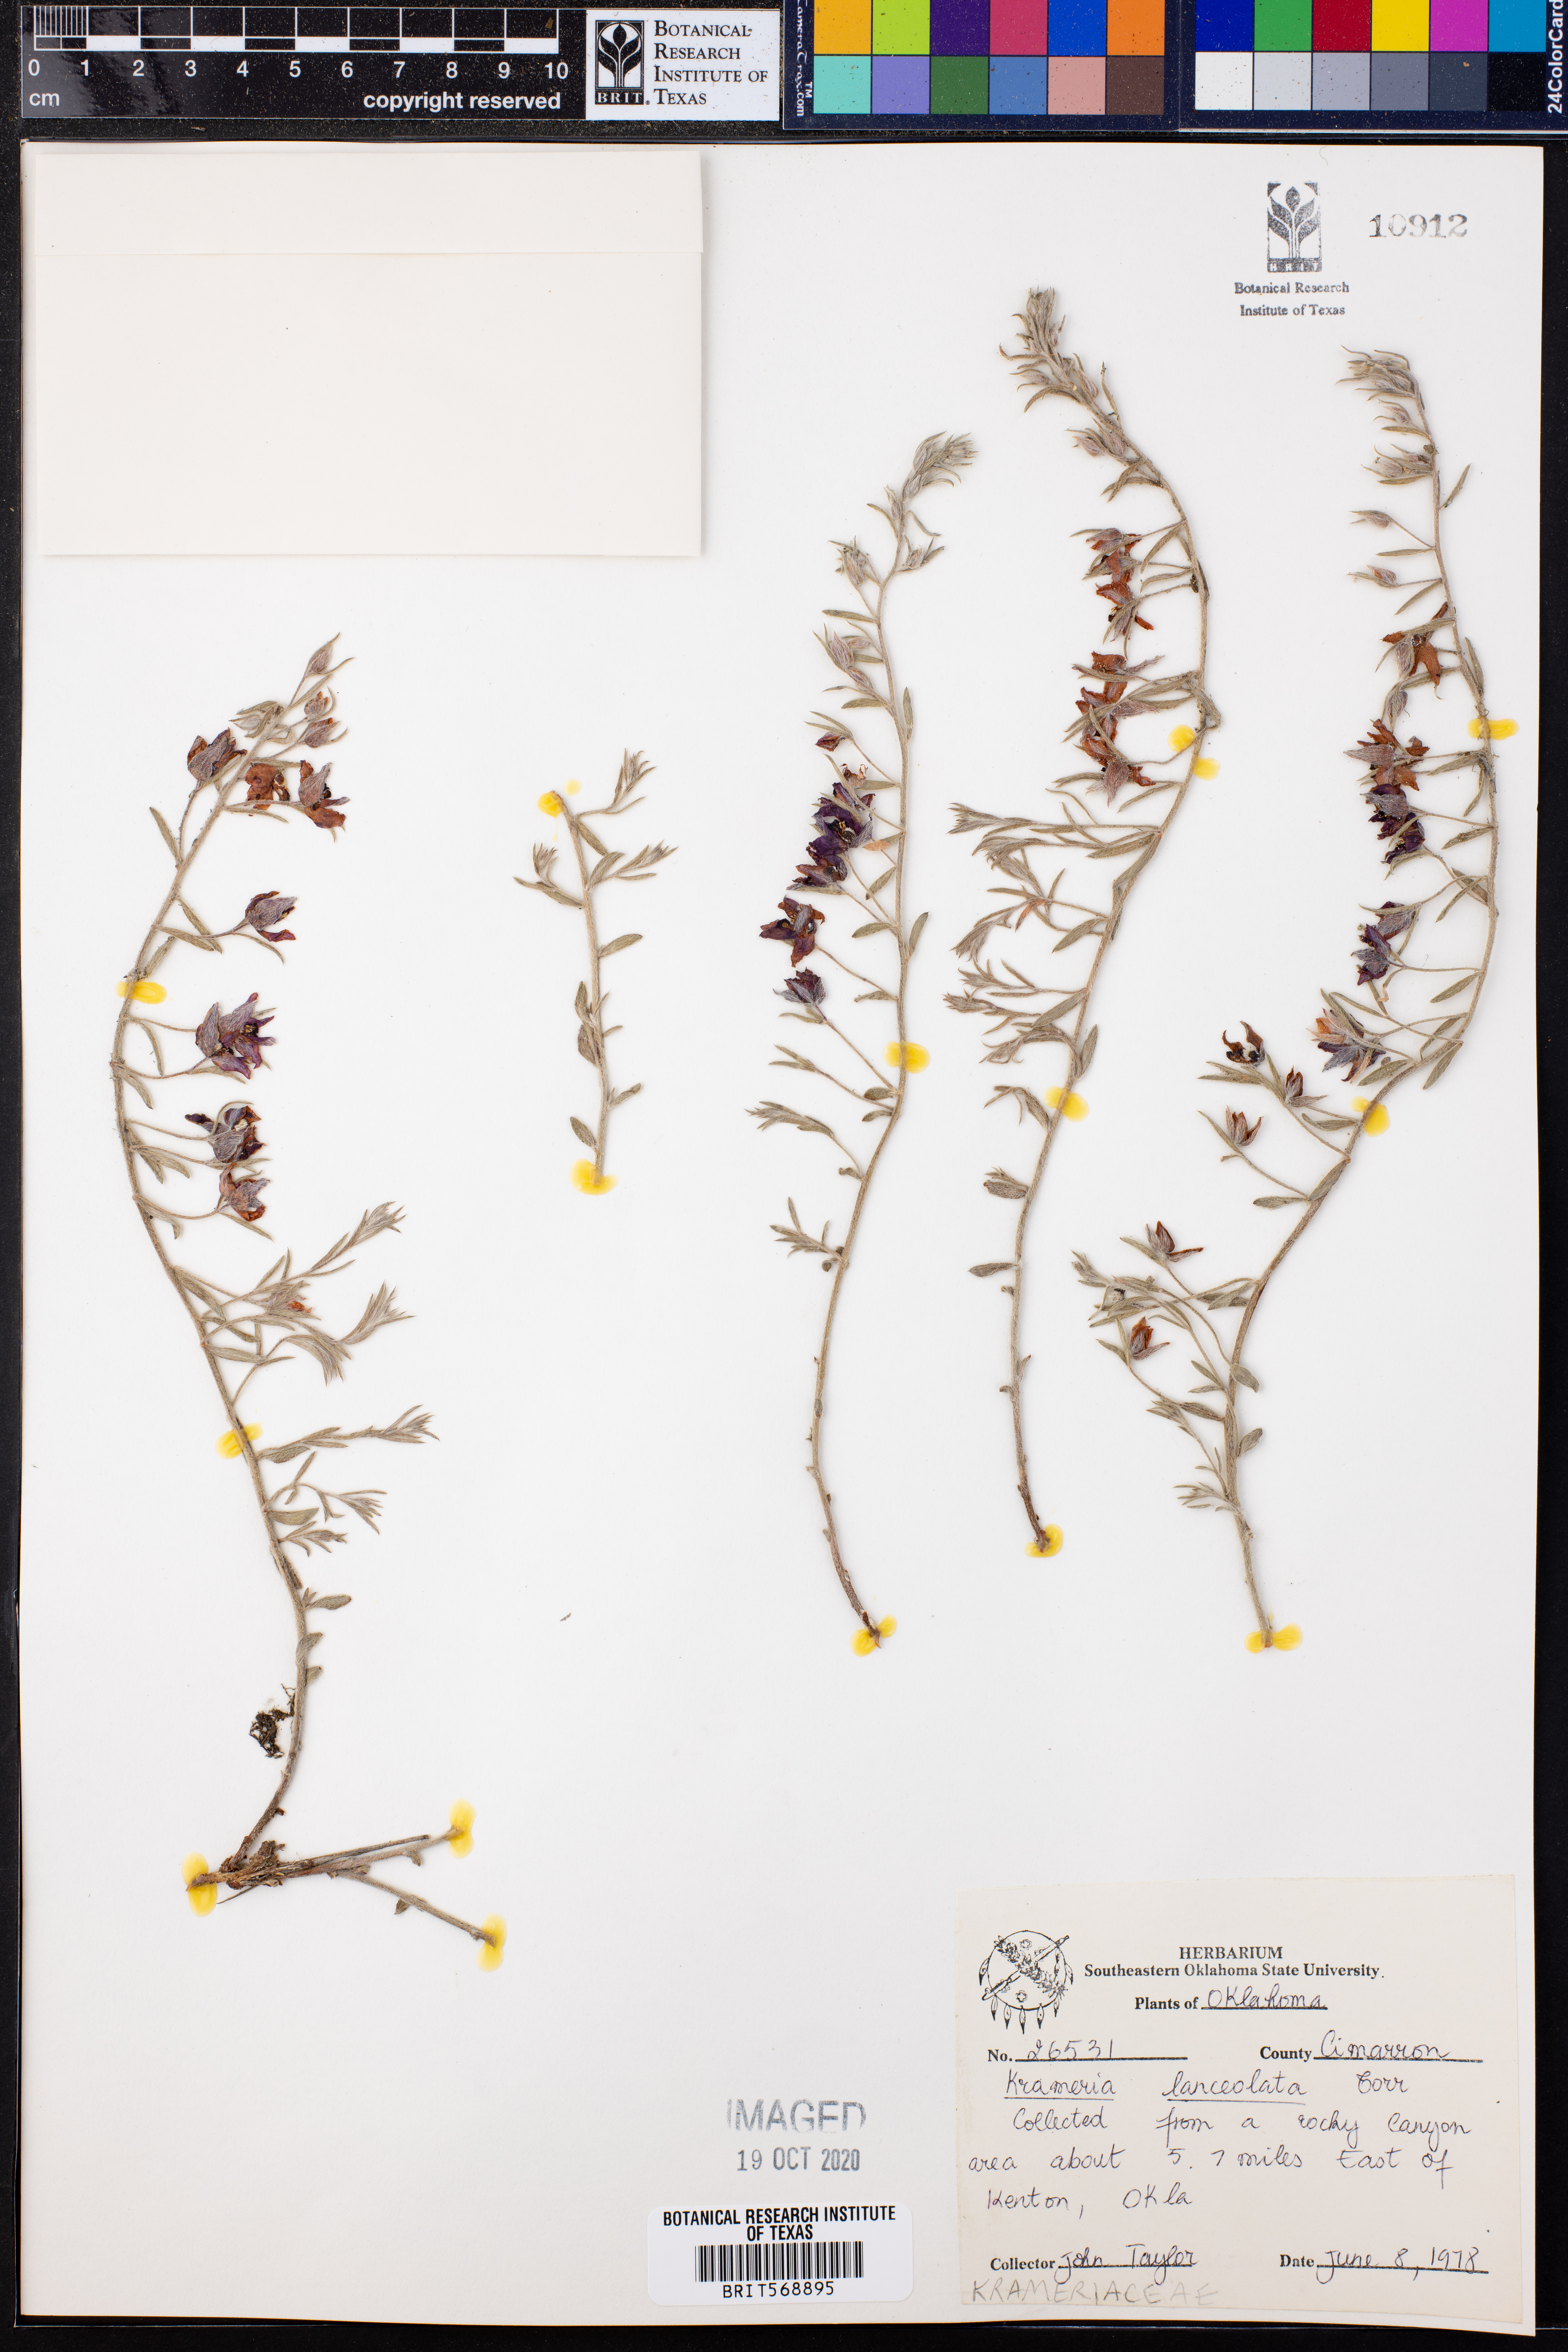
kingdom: Plantae
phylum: Tracheophyta
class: Magnoliopsida
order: Zygophyllales
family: Krameriaceae
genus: Krameria
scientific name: Krameria lanceolata
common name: Ratany
